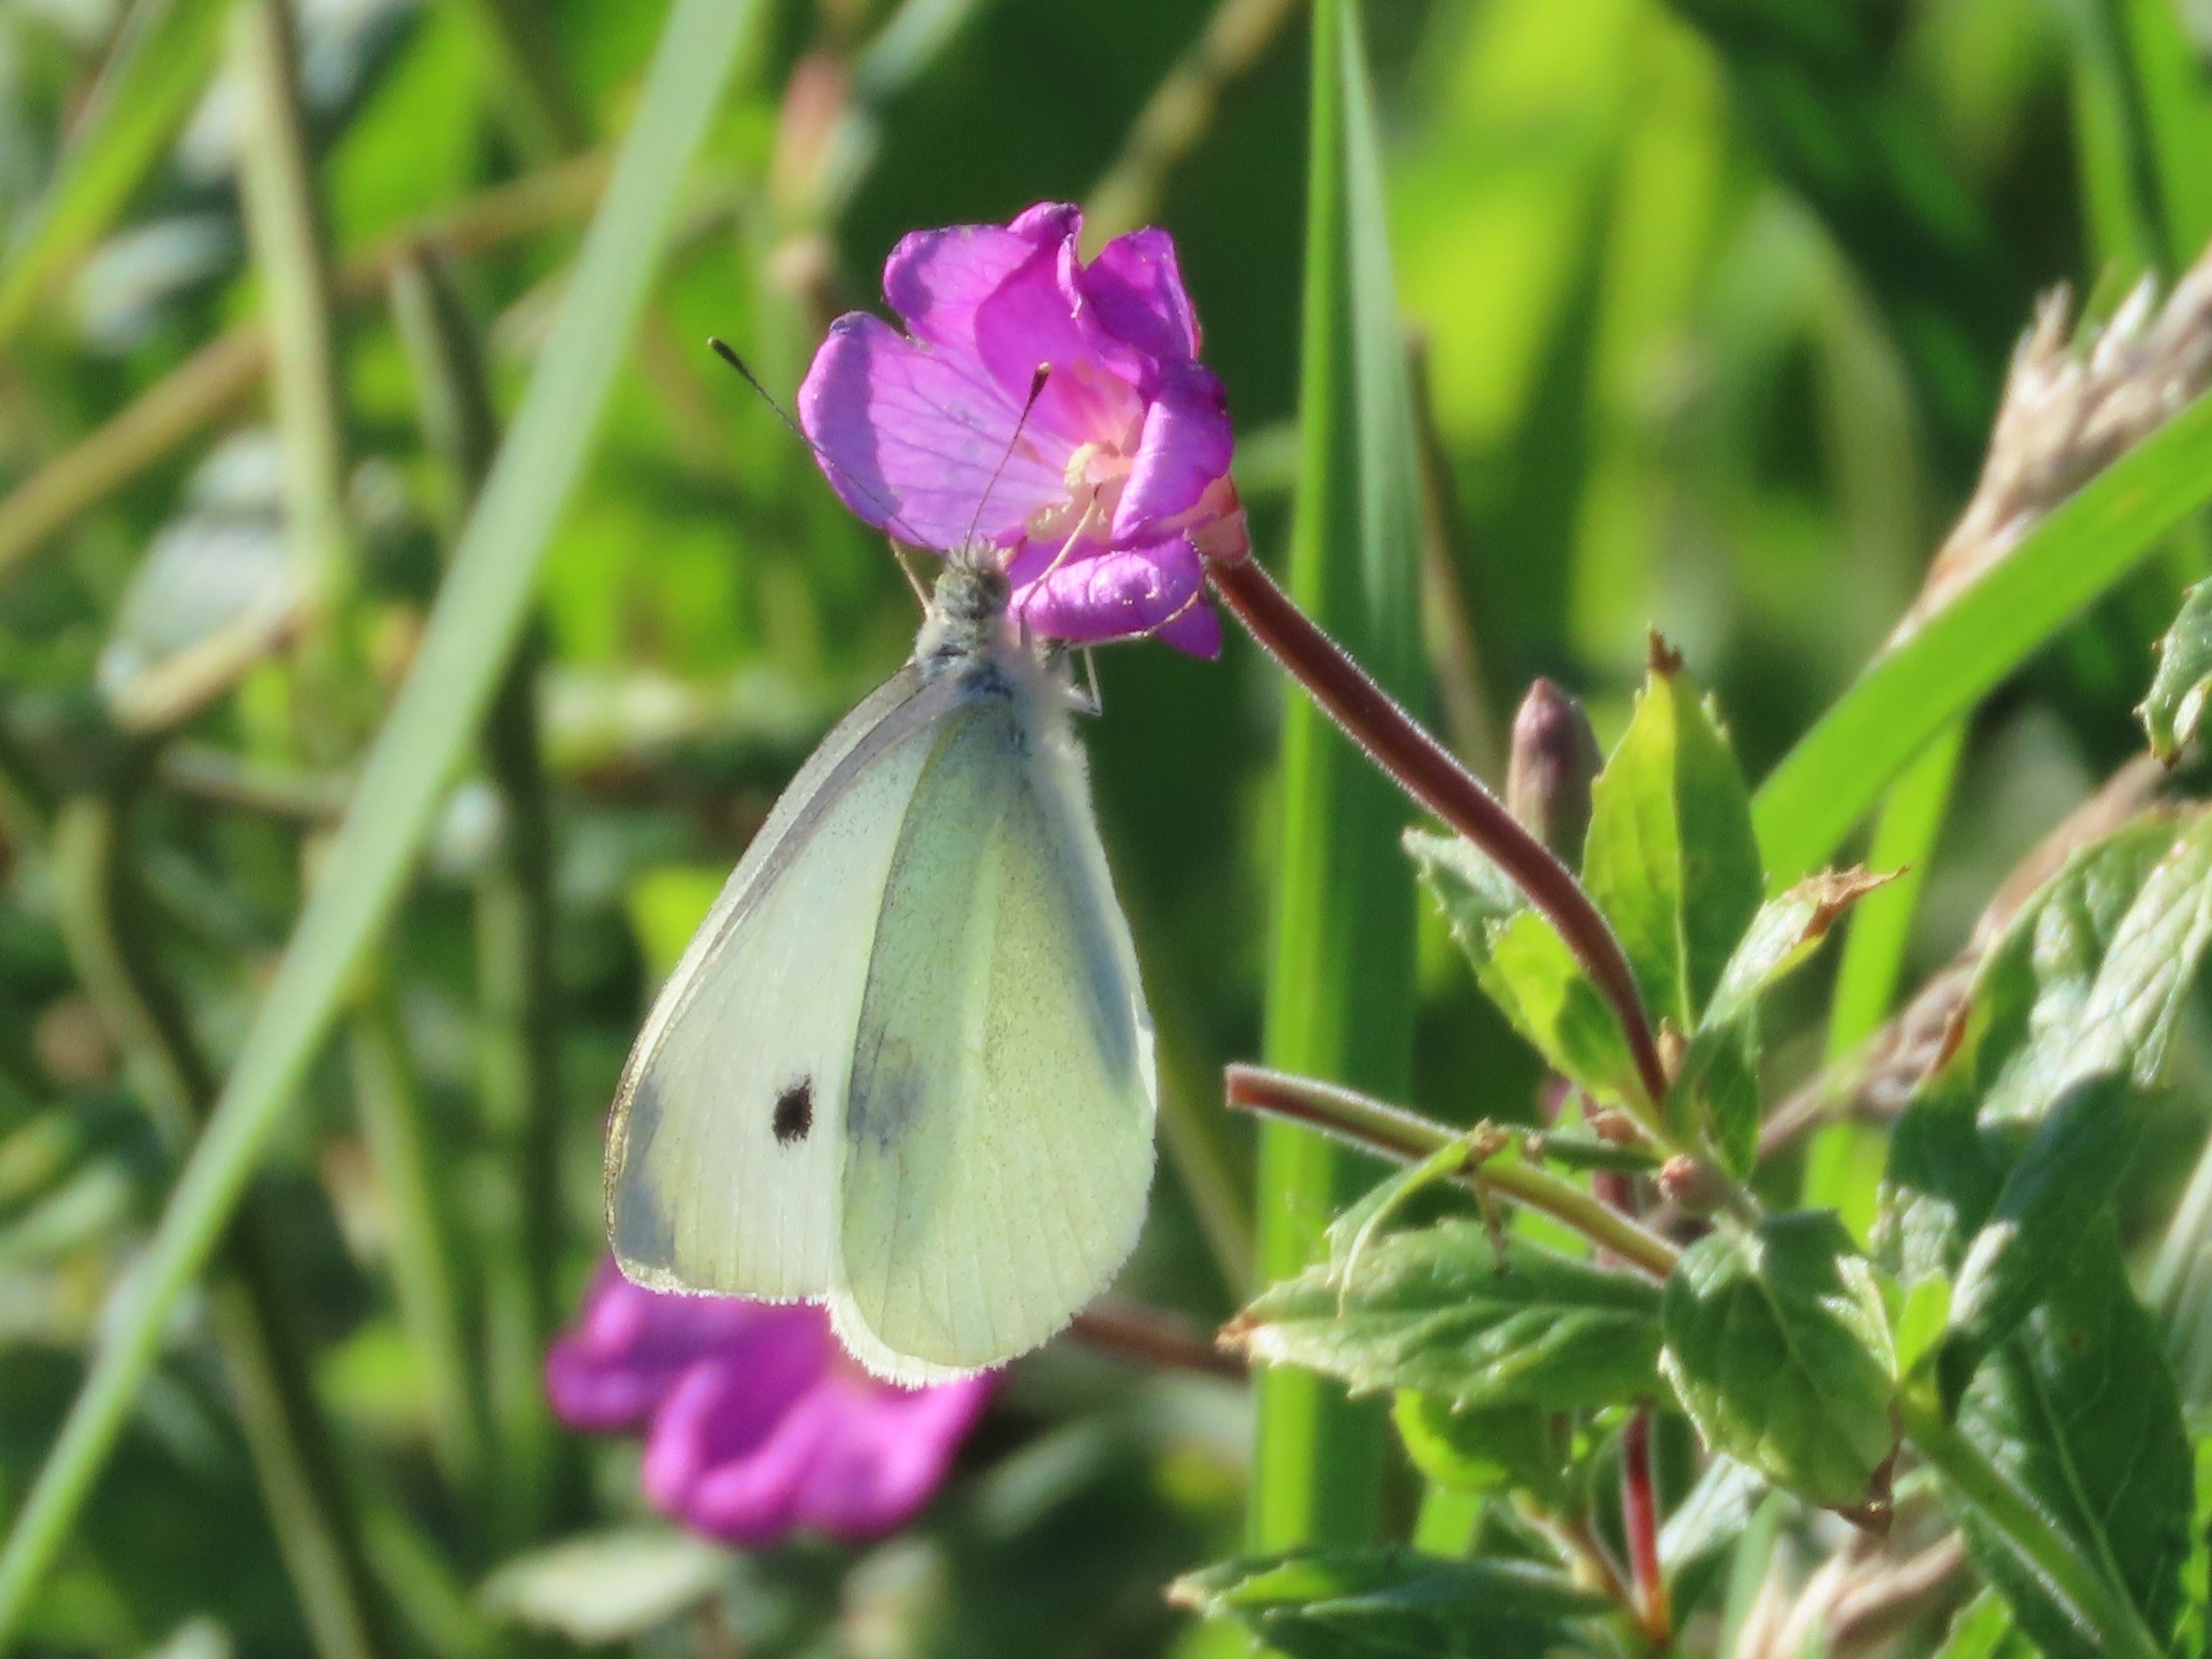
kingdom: Animalia
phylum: Arthropoda
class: Insecta
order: Lepidoptera
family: Pieridae
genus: Pieris
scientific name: Pieris rapae
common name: Lille kålsommerfugl
